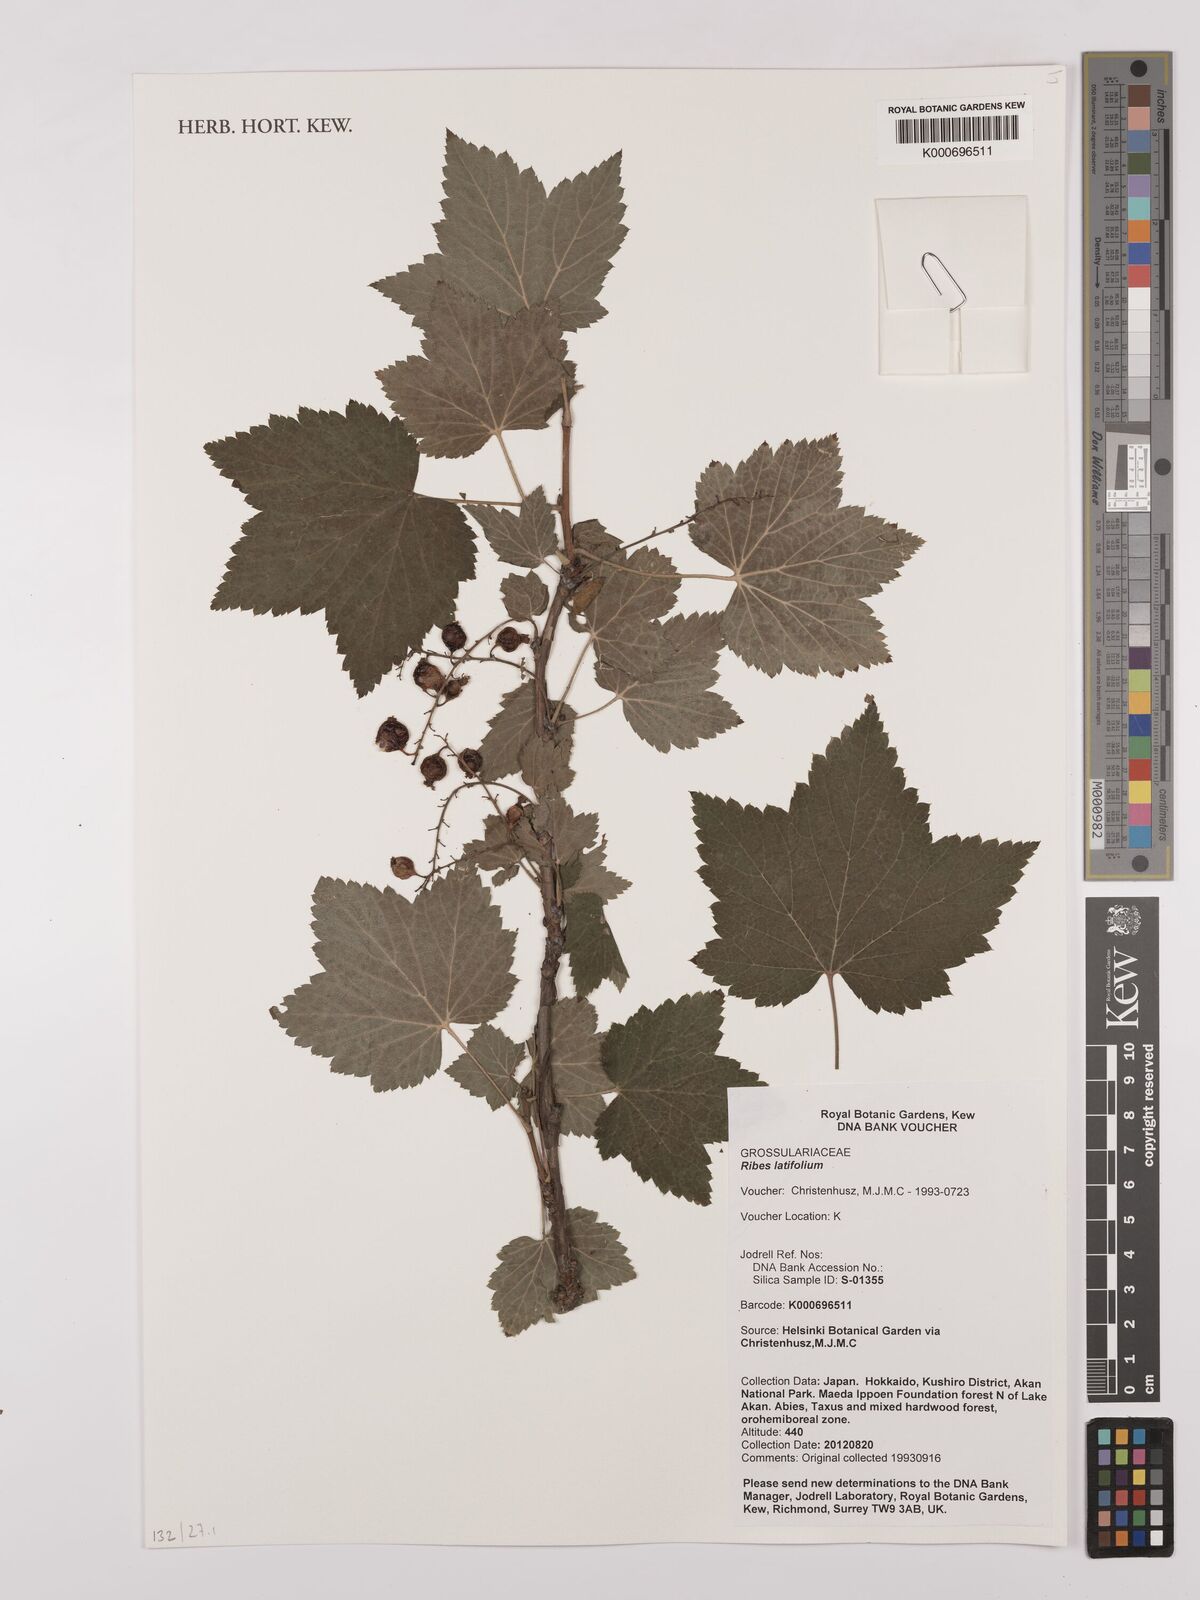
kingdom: Plantae
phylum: Tracheophyta
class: Magnoliopsida
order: Saxifragales
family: Grossulariaceae
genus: Ribes
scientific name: Ribes latifolium
